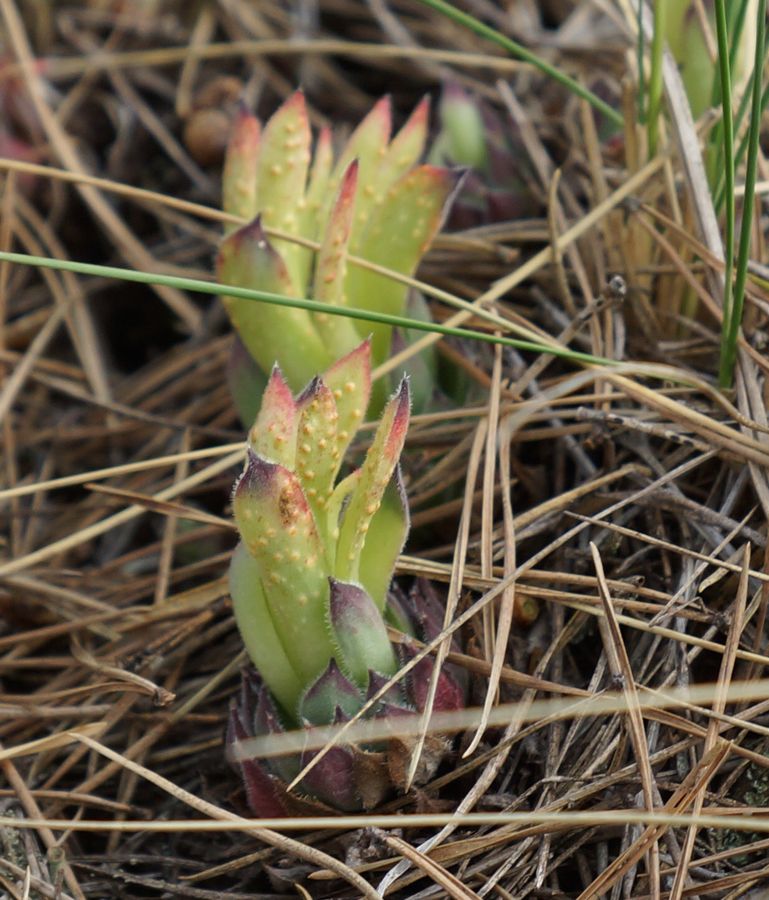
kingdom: Plantae
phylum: Tracheophyta
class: Magnoliopsida
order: Saxifragales
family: Crassulaceae
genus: Sempervivum
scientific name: Sempervivum ruthenicum
